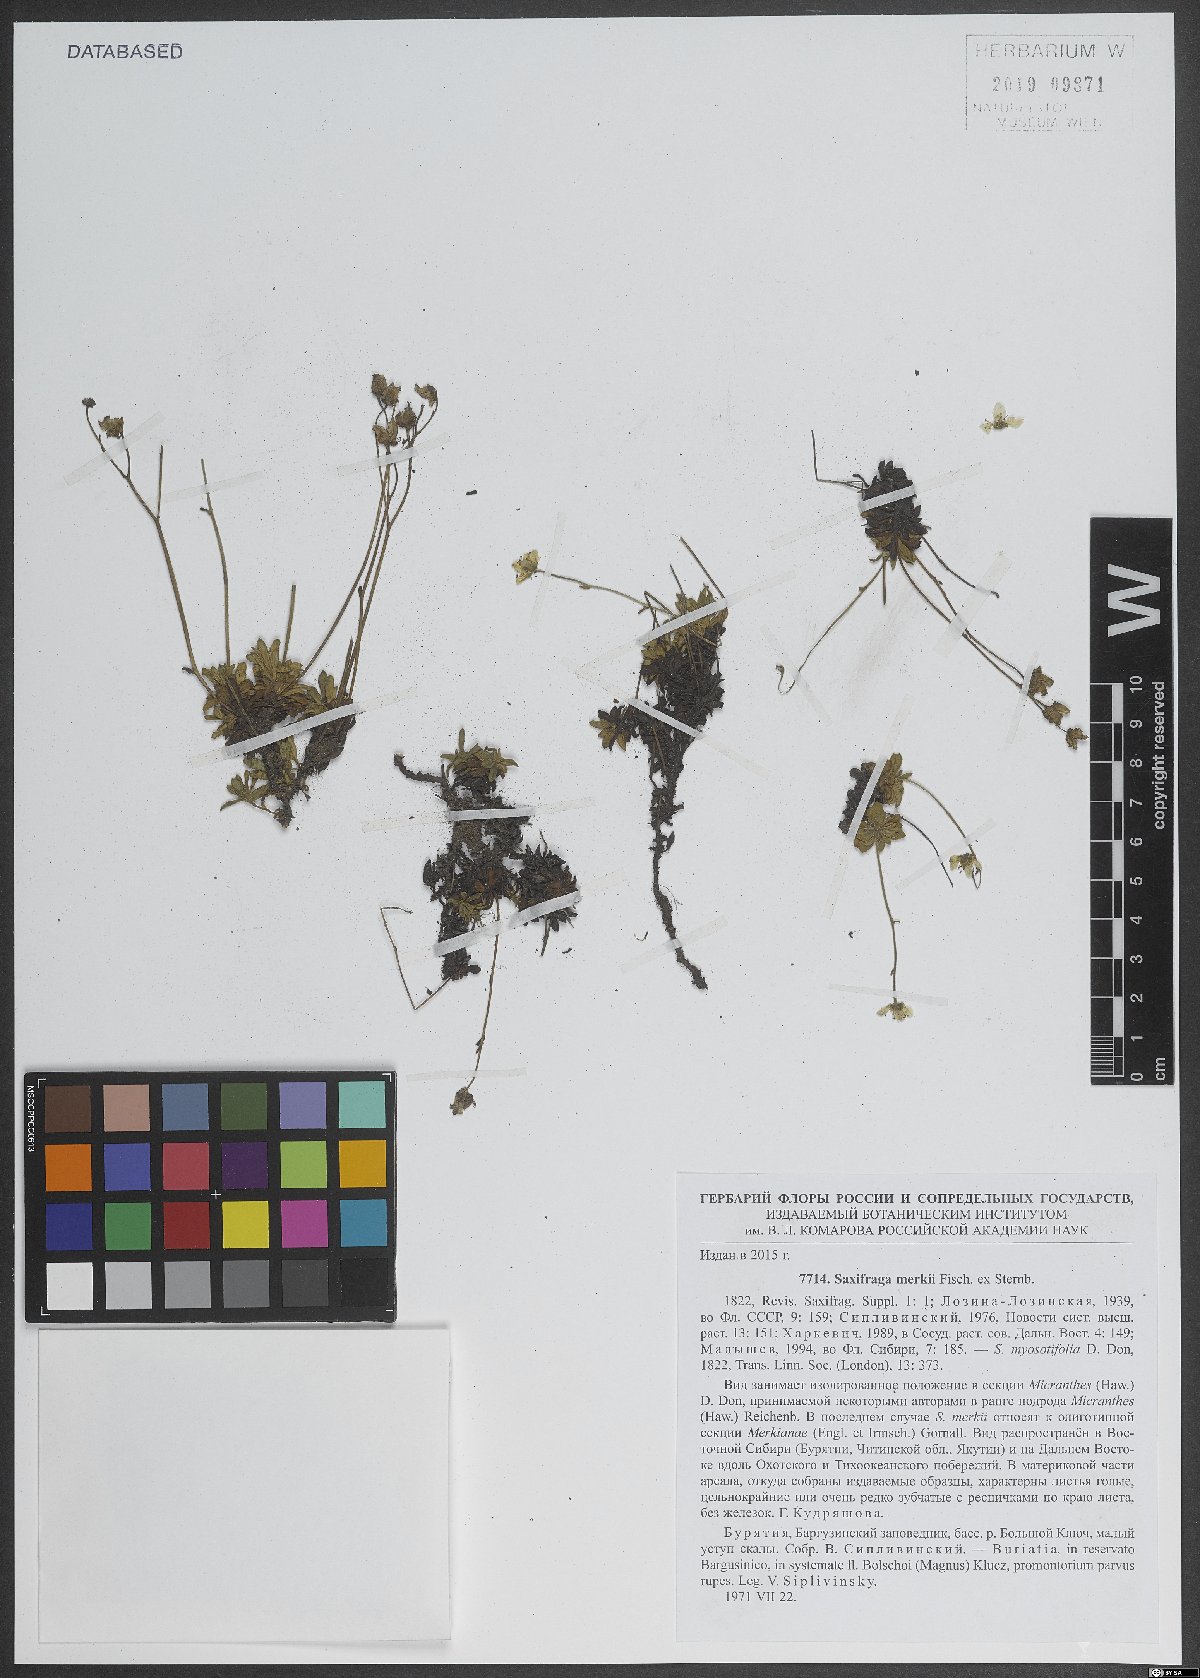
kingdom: Plantae
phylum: Tracheophyta
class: Magnoliopsida
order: Saxifragales
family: Saxifragaceae
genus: Micranthes
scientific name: Micranthes merkii
